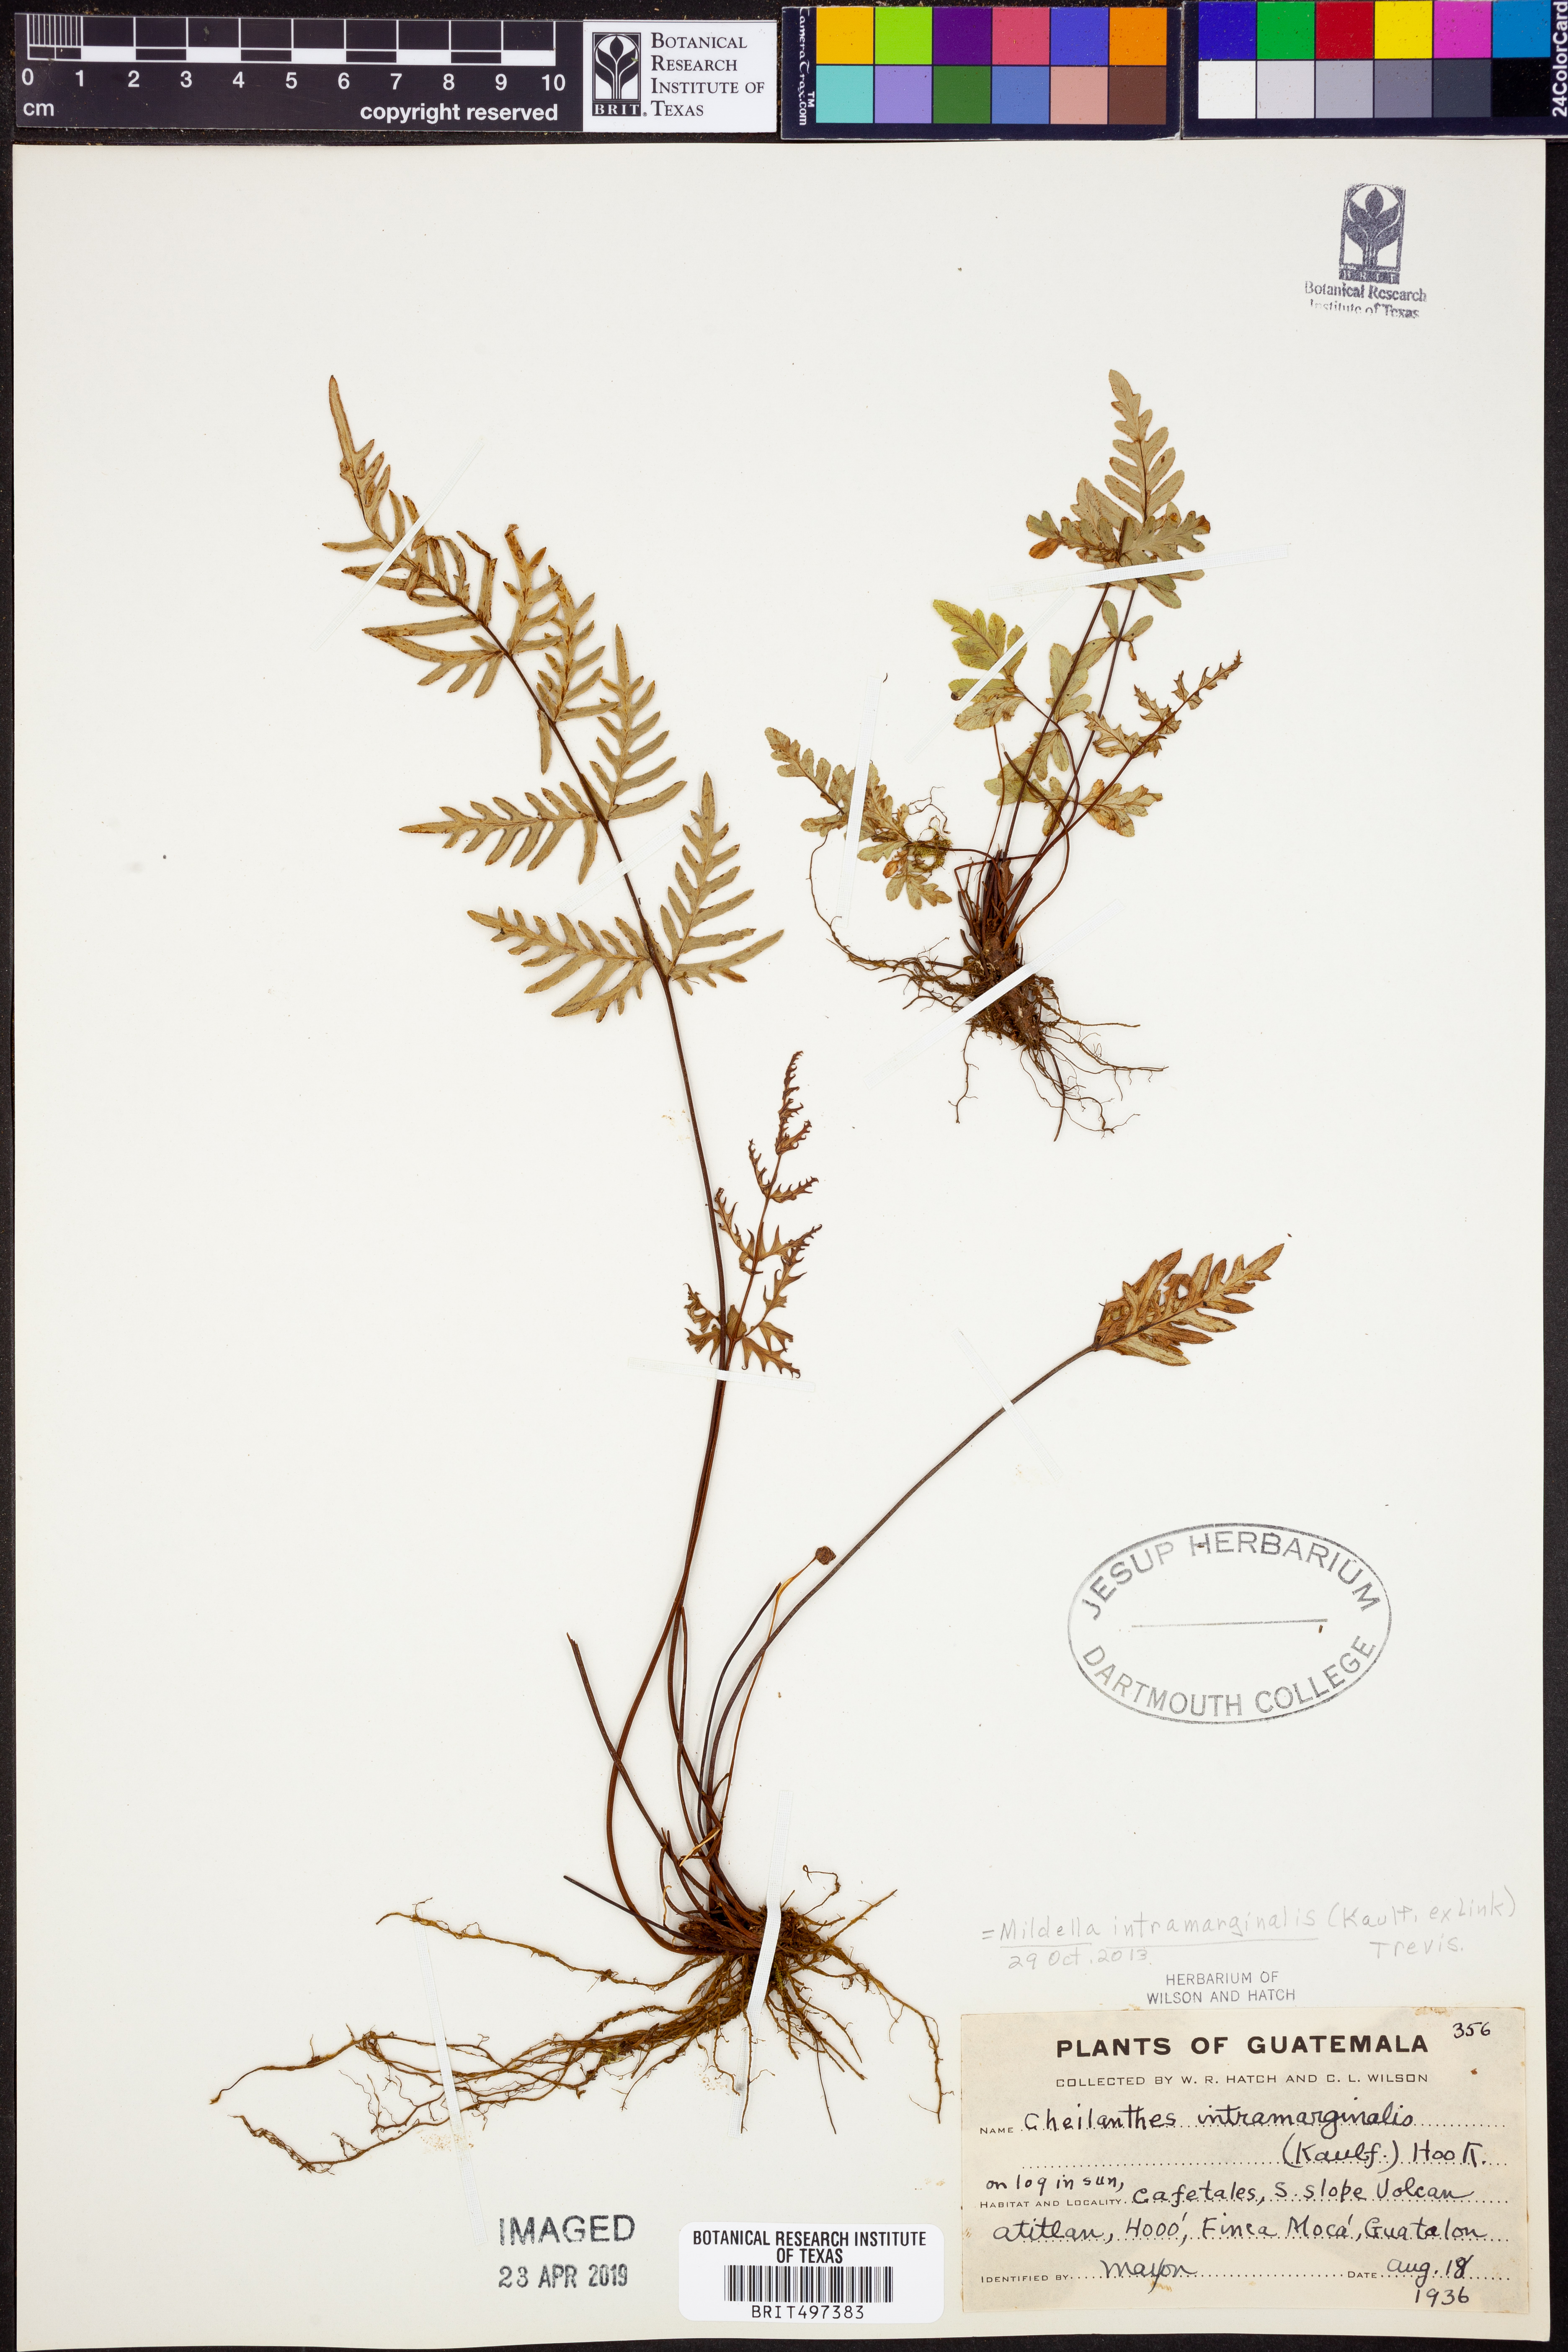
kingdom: Plantae
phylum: Tracheophyta
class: Polypodiopsida
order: Polypodiales
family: Pteridaceae
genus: Mildella
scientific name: Mildella intramarginalis
